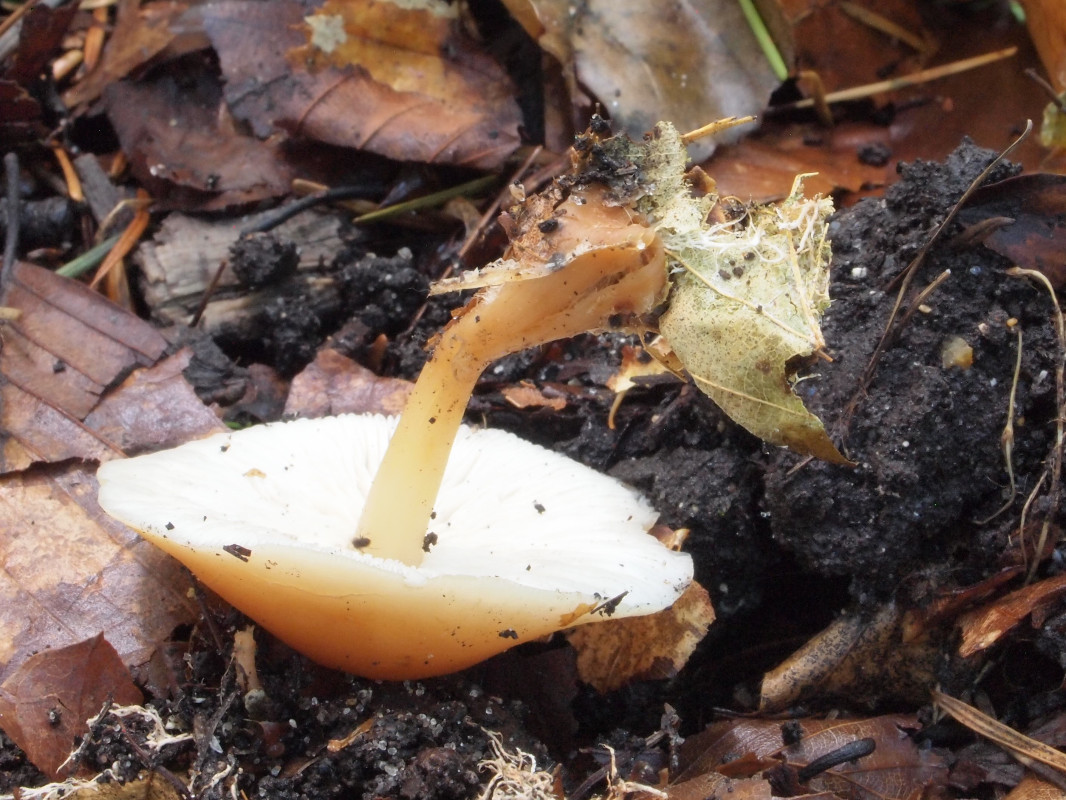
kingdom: Fungi
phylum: Basidiomycota
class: Agaricomycetes
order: Agaricales
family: Omphalotaceae
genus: Gymnopus
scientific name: Gymnopus dryophilus
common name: løv-fladhat
